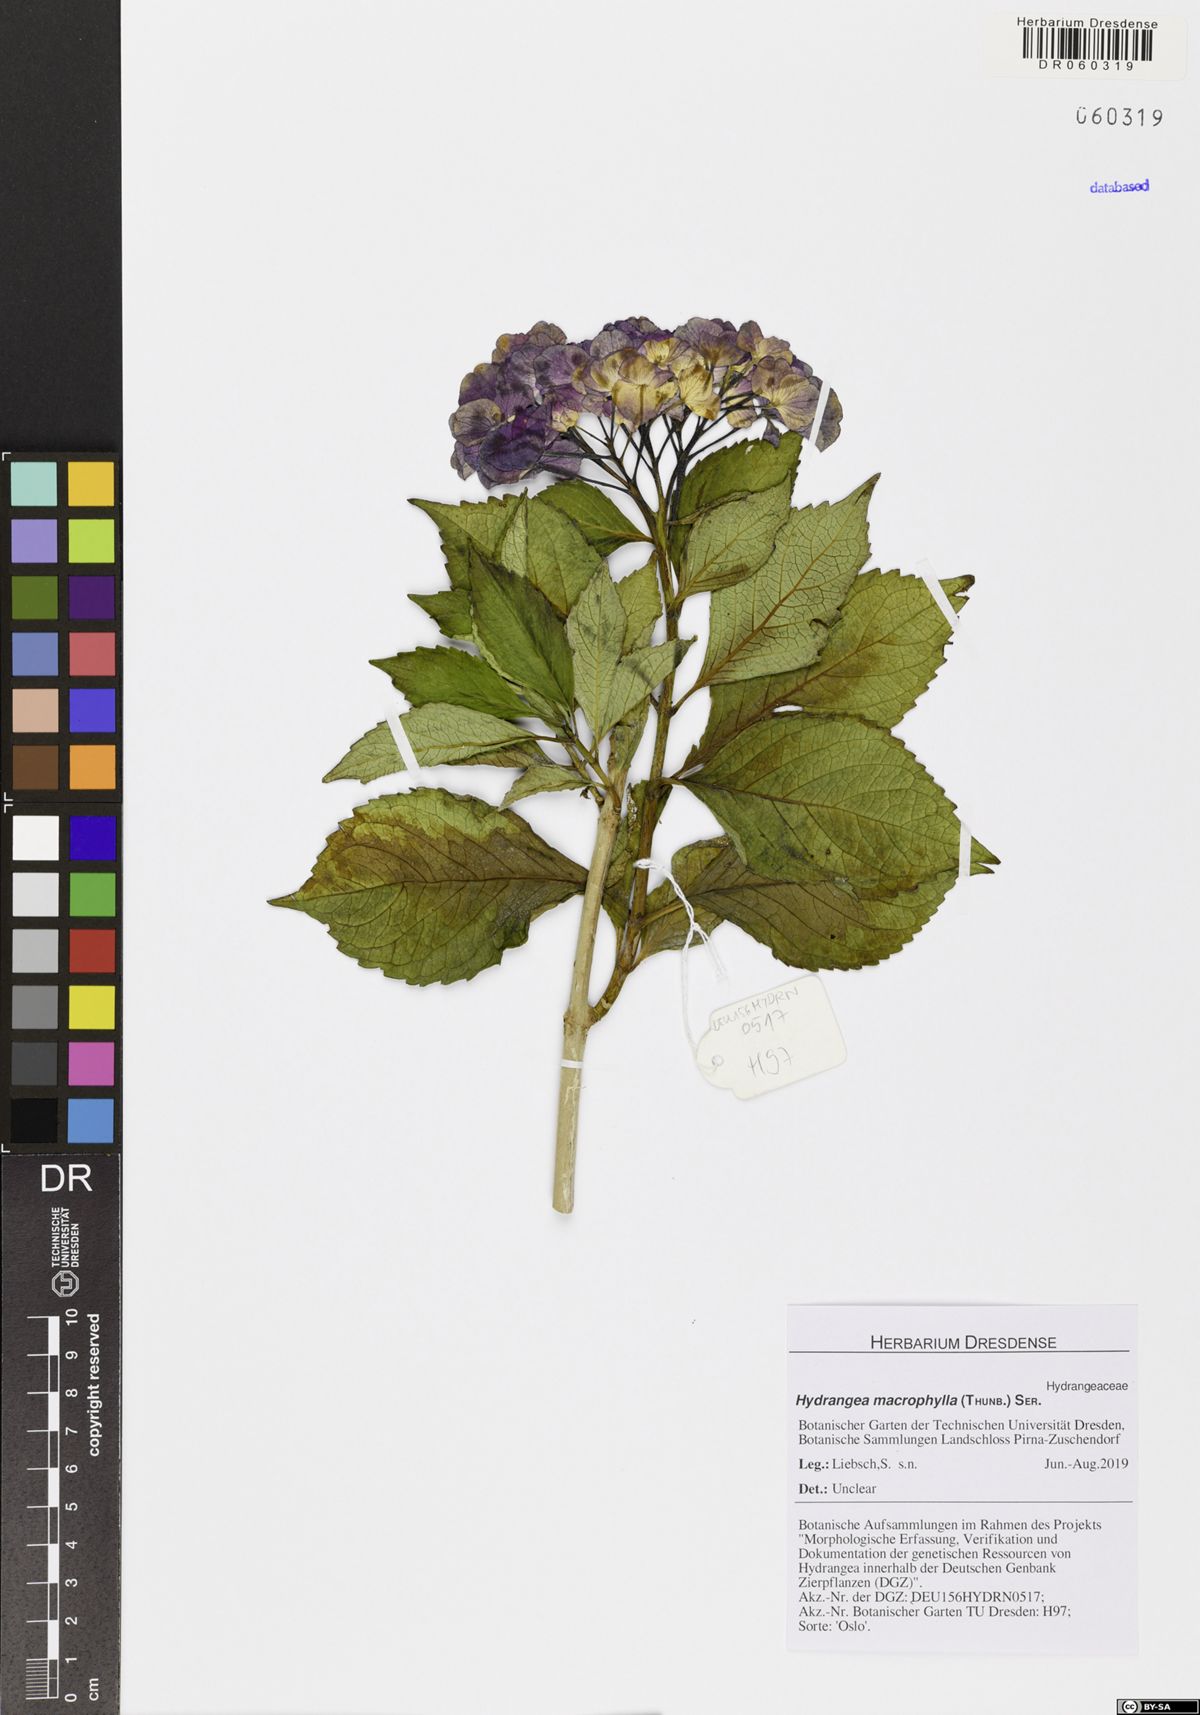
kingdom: Plantae
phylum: Tracheophyta
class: Magnoliopsida
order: Cornales
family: Hydrangeaceae
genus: Hydrangea
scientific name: Hydrangea macrophylla
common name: Hydrangea
